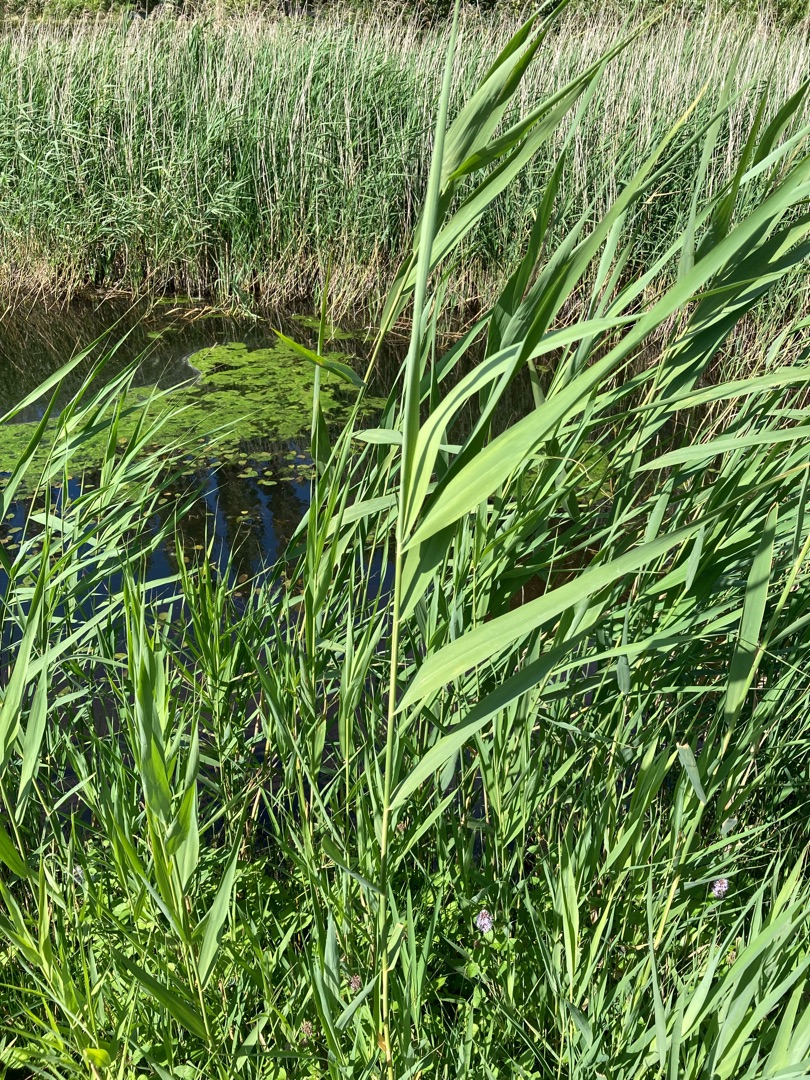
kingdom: Plantae
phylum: Tracheophyta
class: Liliopsida
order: Poales
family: Poaceae
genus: Phragmites
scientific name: Phragmites australis
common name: Tagrør
